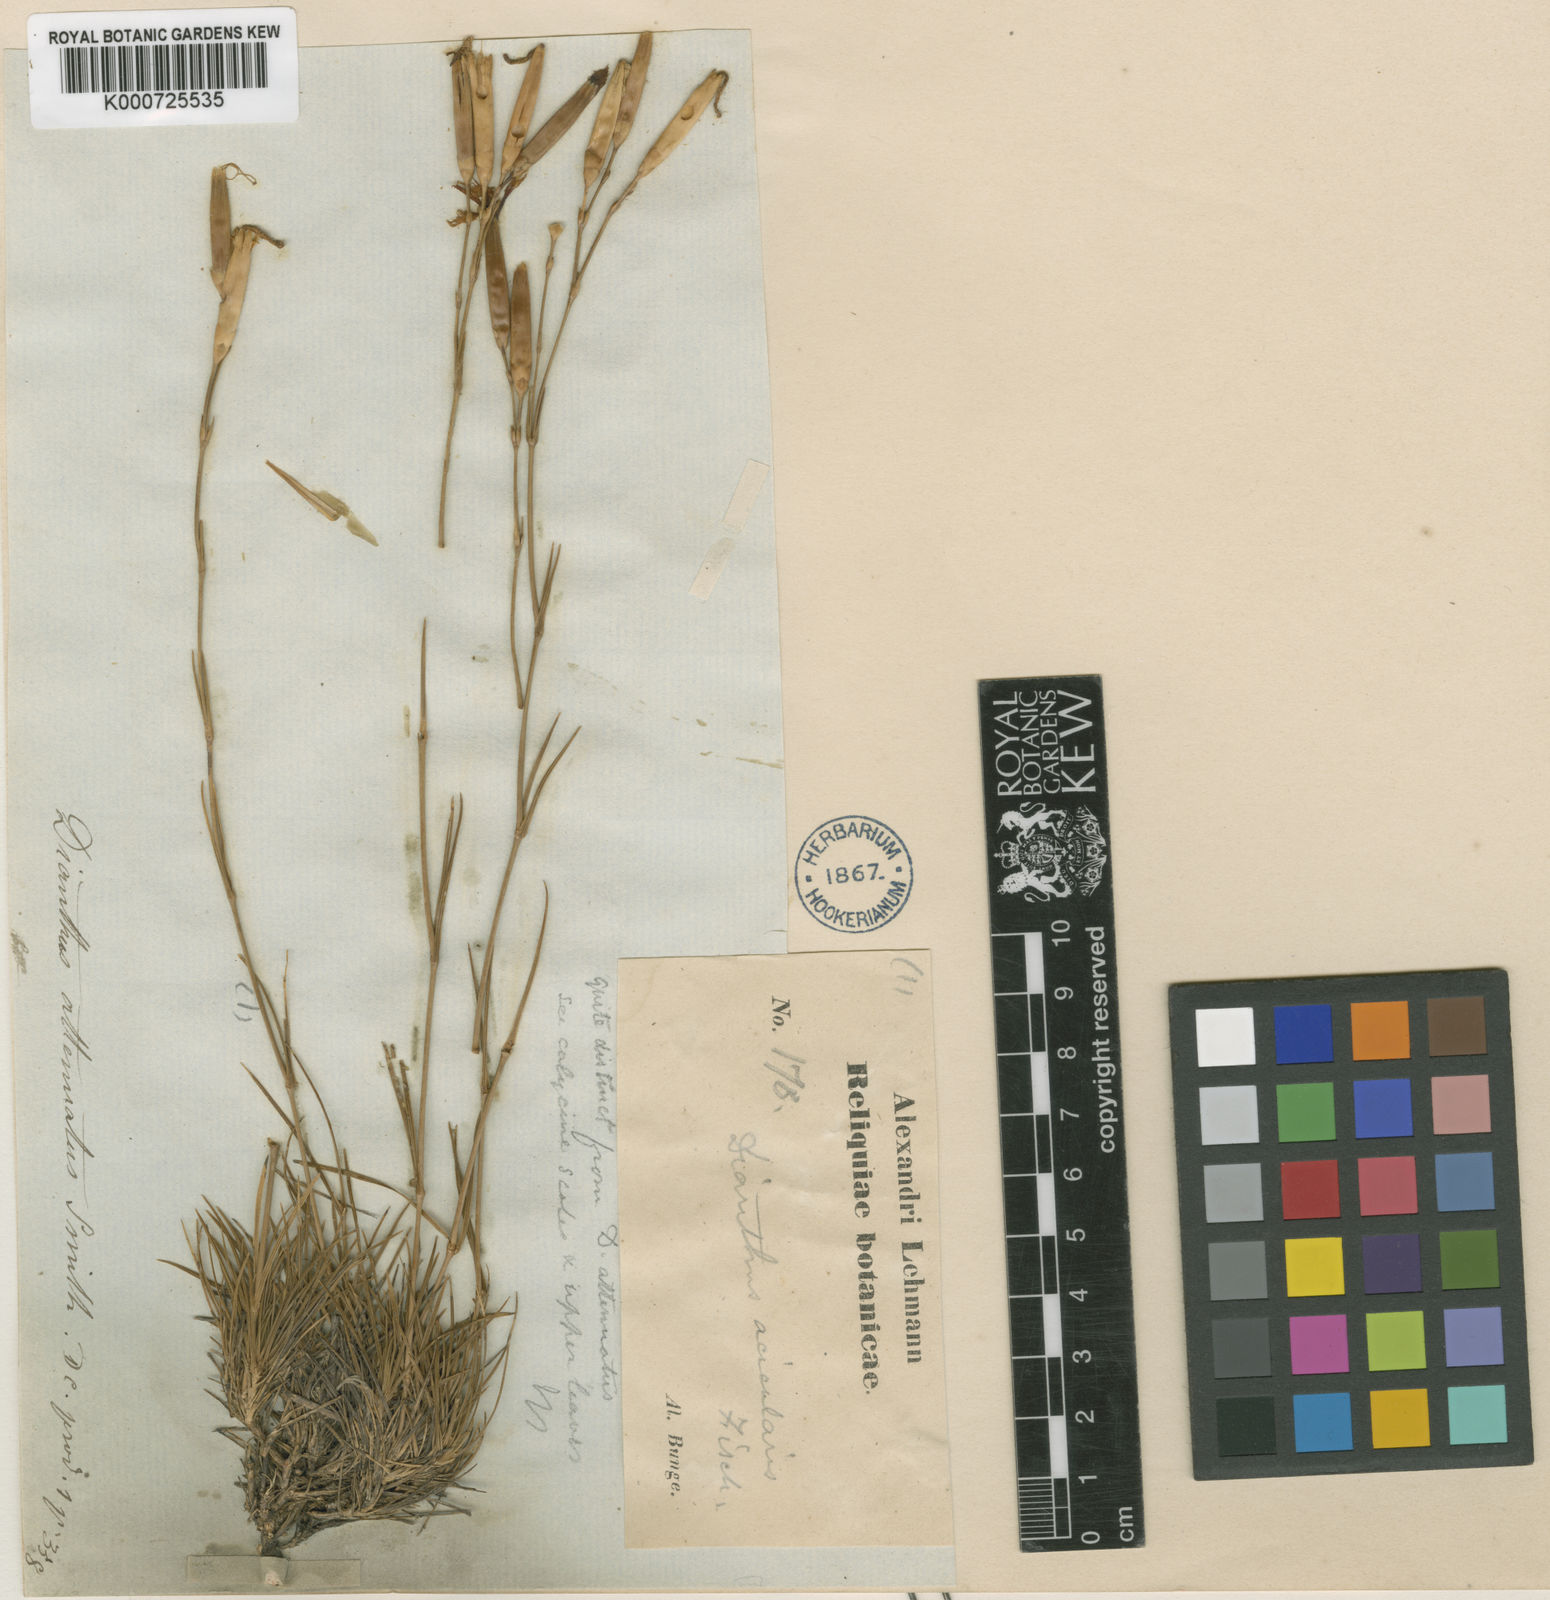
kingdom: Plantae
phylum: Tracheophyta
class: Magnoliopsida
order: Caryophyllales
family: Caryophyllaceae
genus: Dianthus
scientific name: Dianthus acicularis
